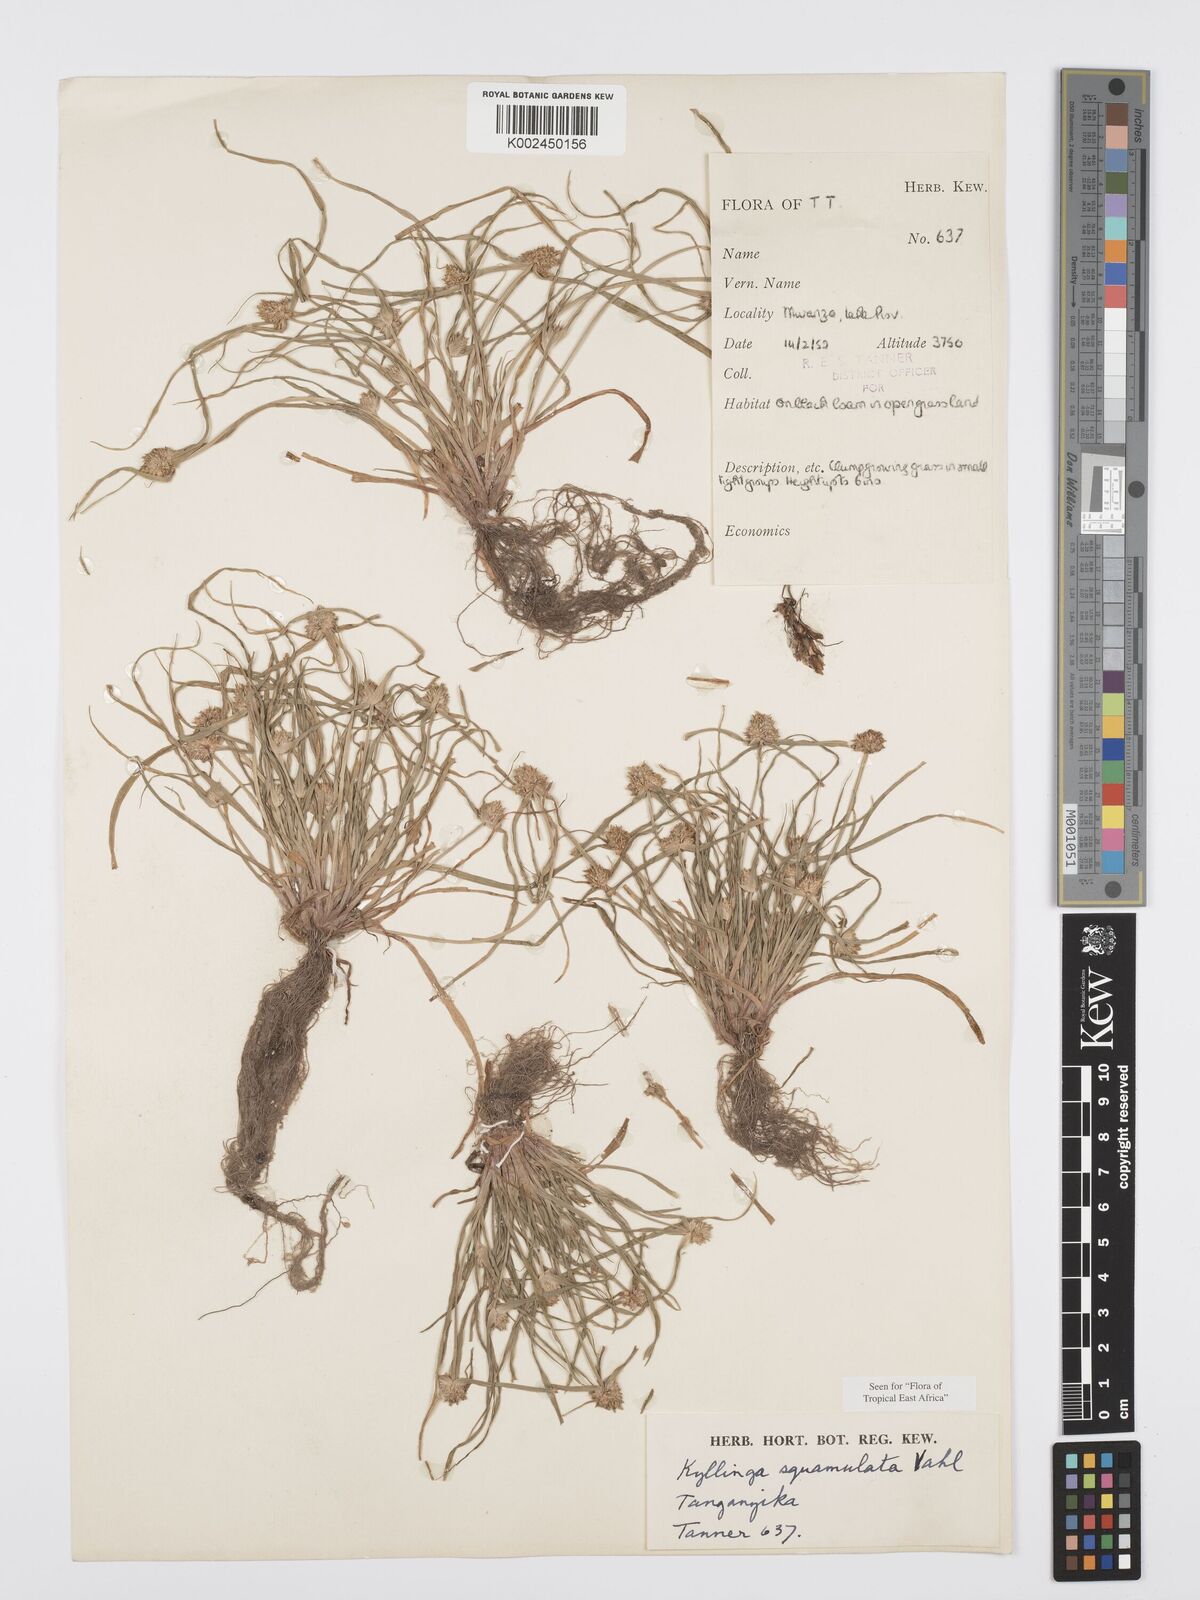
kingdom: Plantae
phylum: Tracheophyta
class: Liliopsida
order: Poales
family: Cyperaceae
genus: Cyperus
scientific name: Cyperus distans
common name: Slender cyperus
